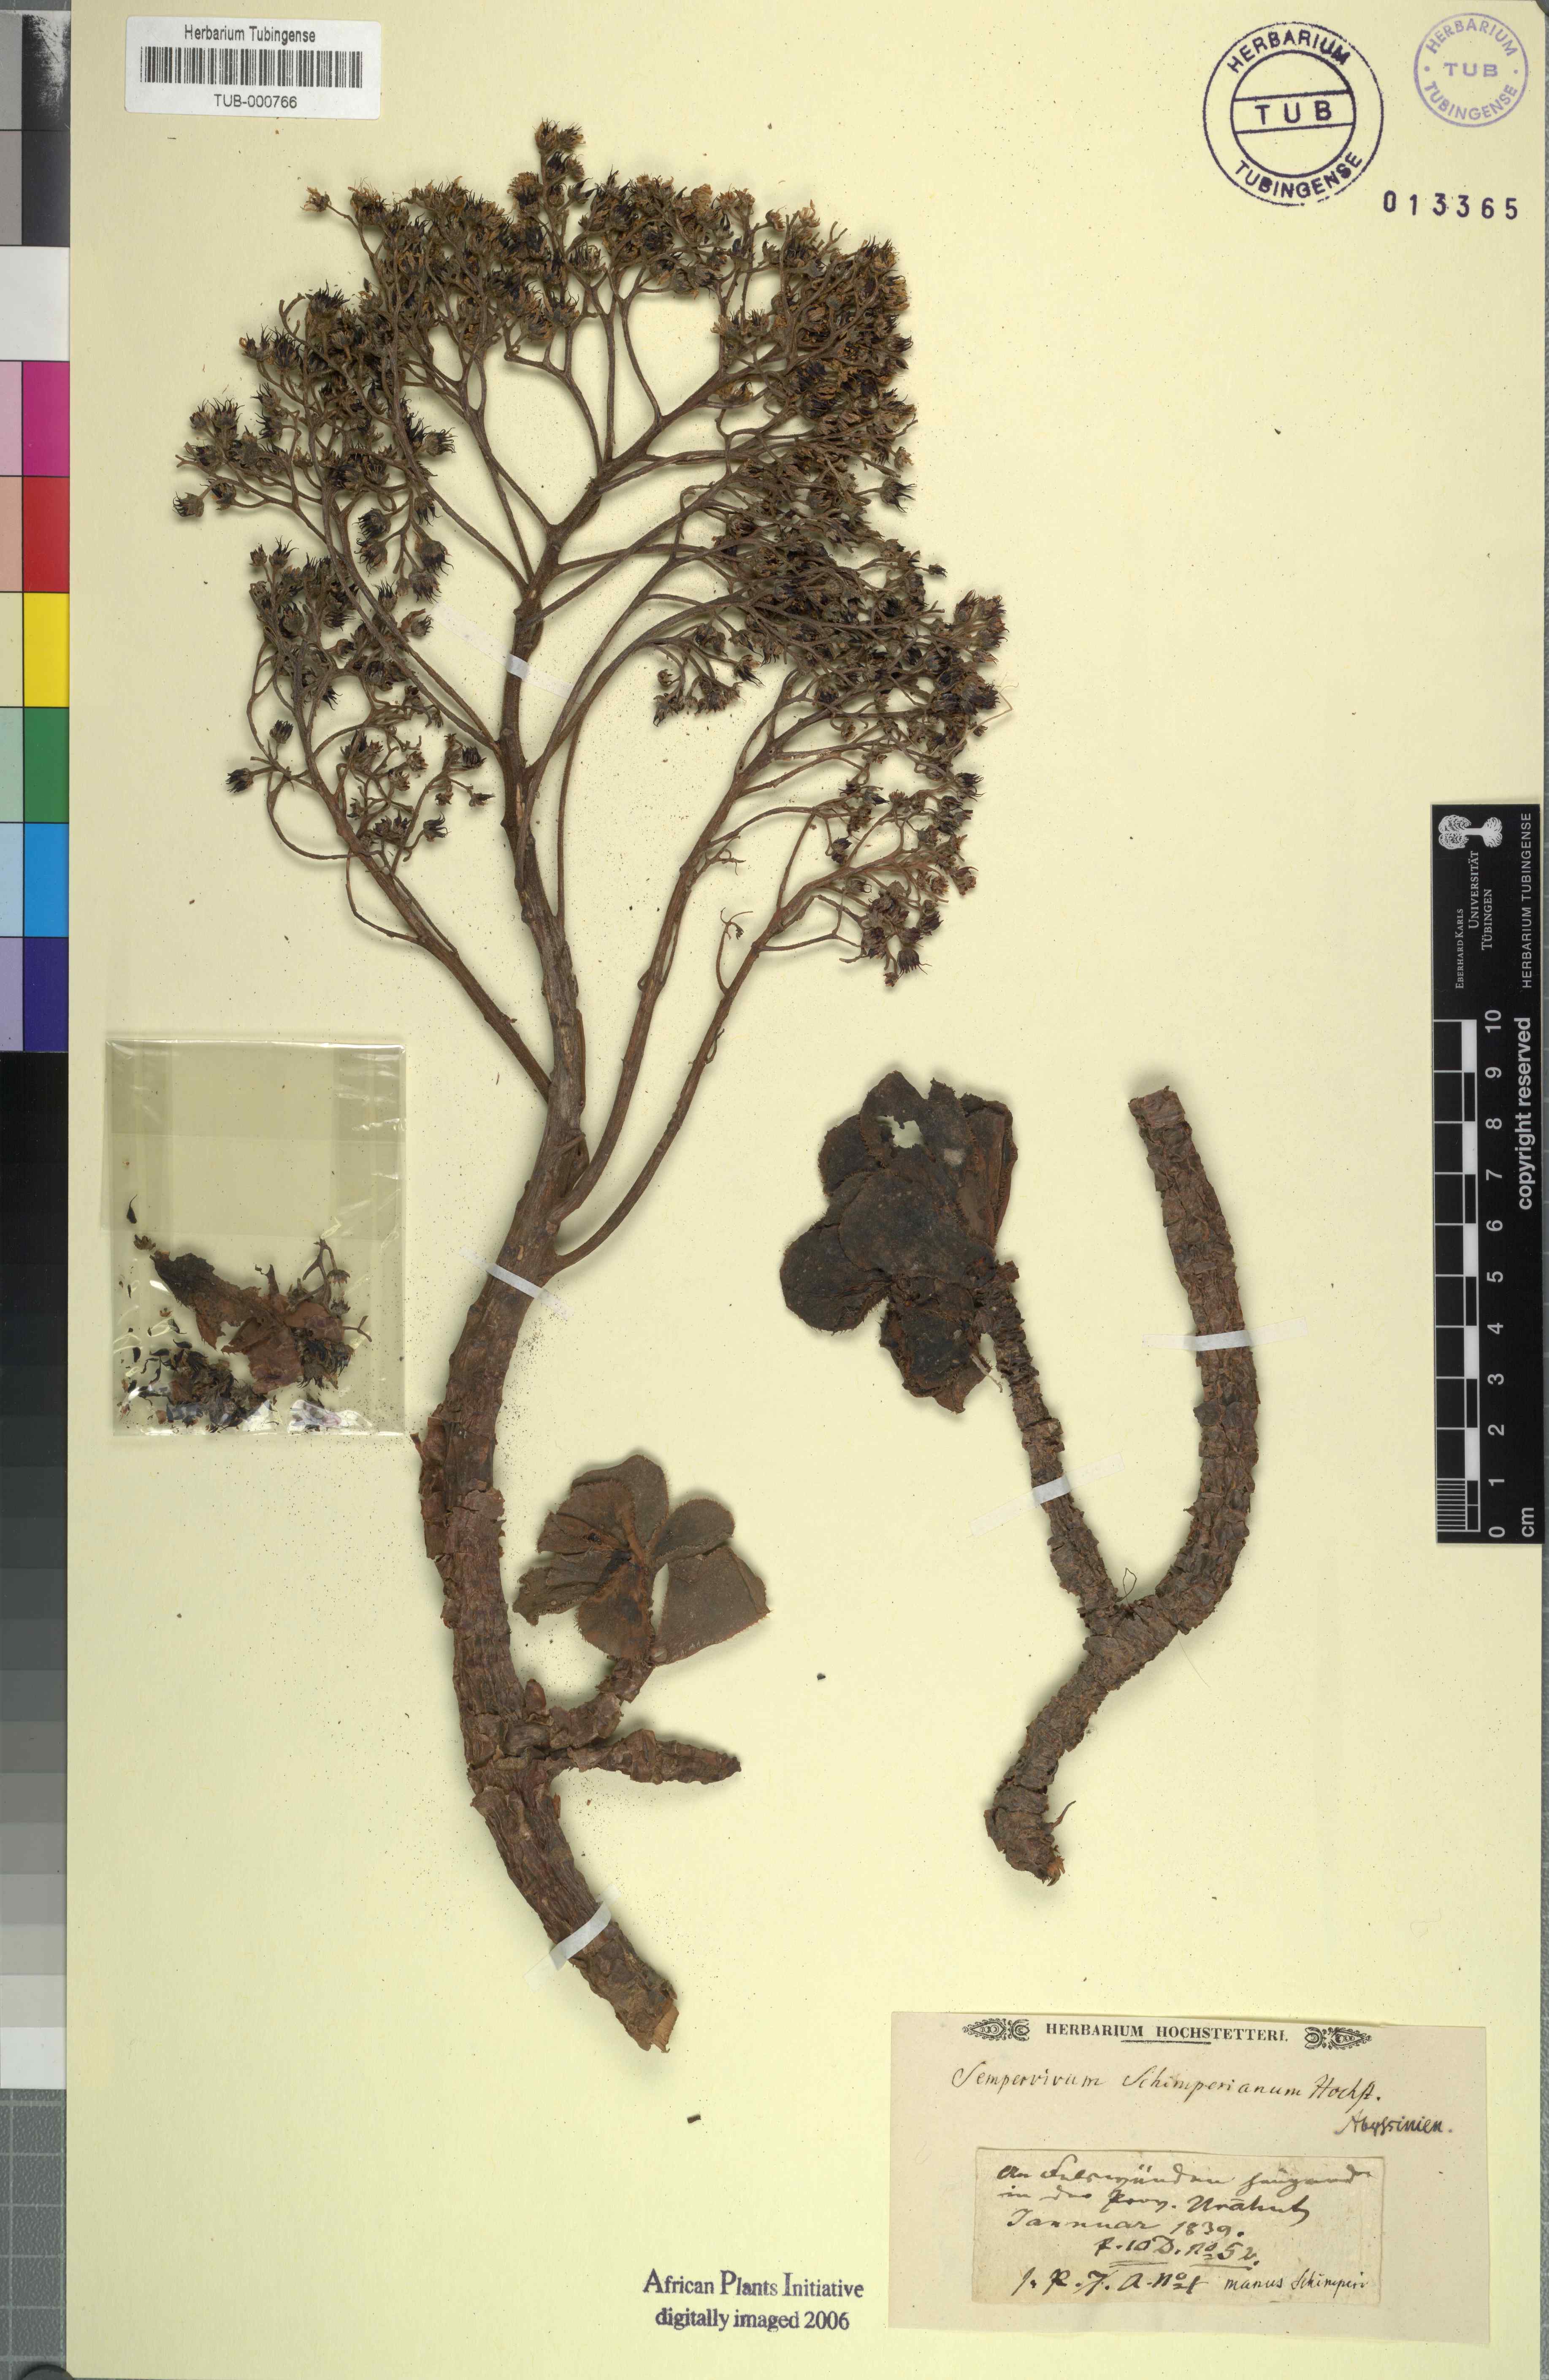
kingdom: Plantae
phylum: Tracheophyta
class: Magnoliopsida
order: Saxifragales
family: Crassulaceae
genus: Sempervivum
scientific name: Sempervivum
